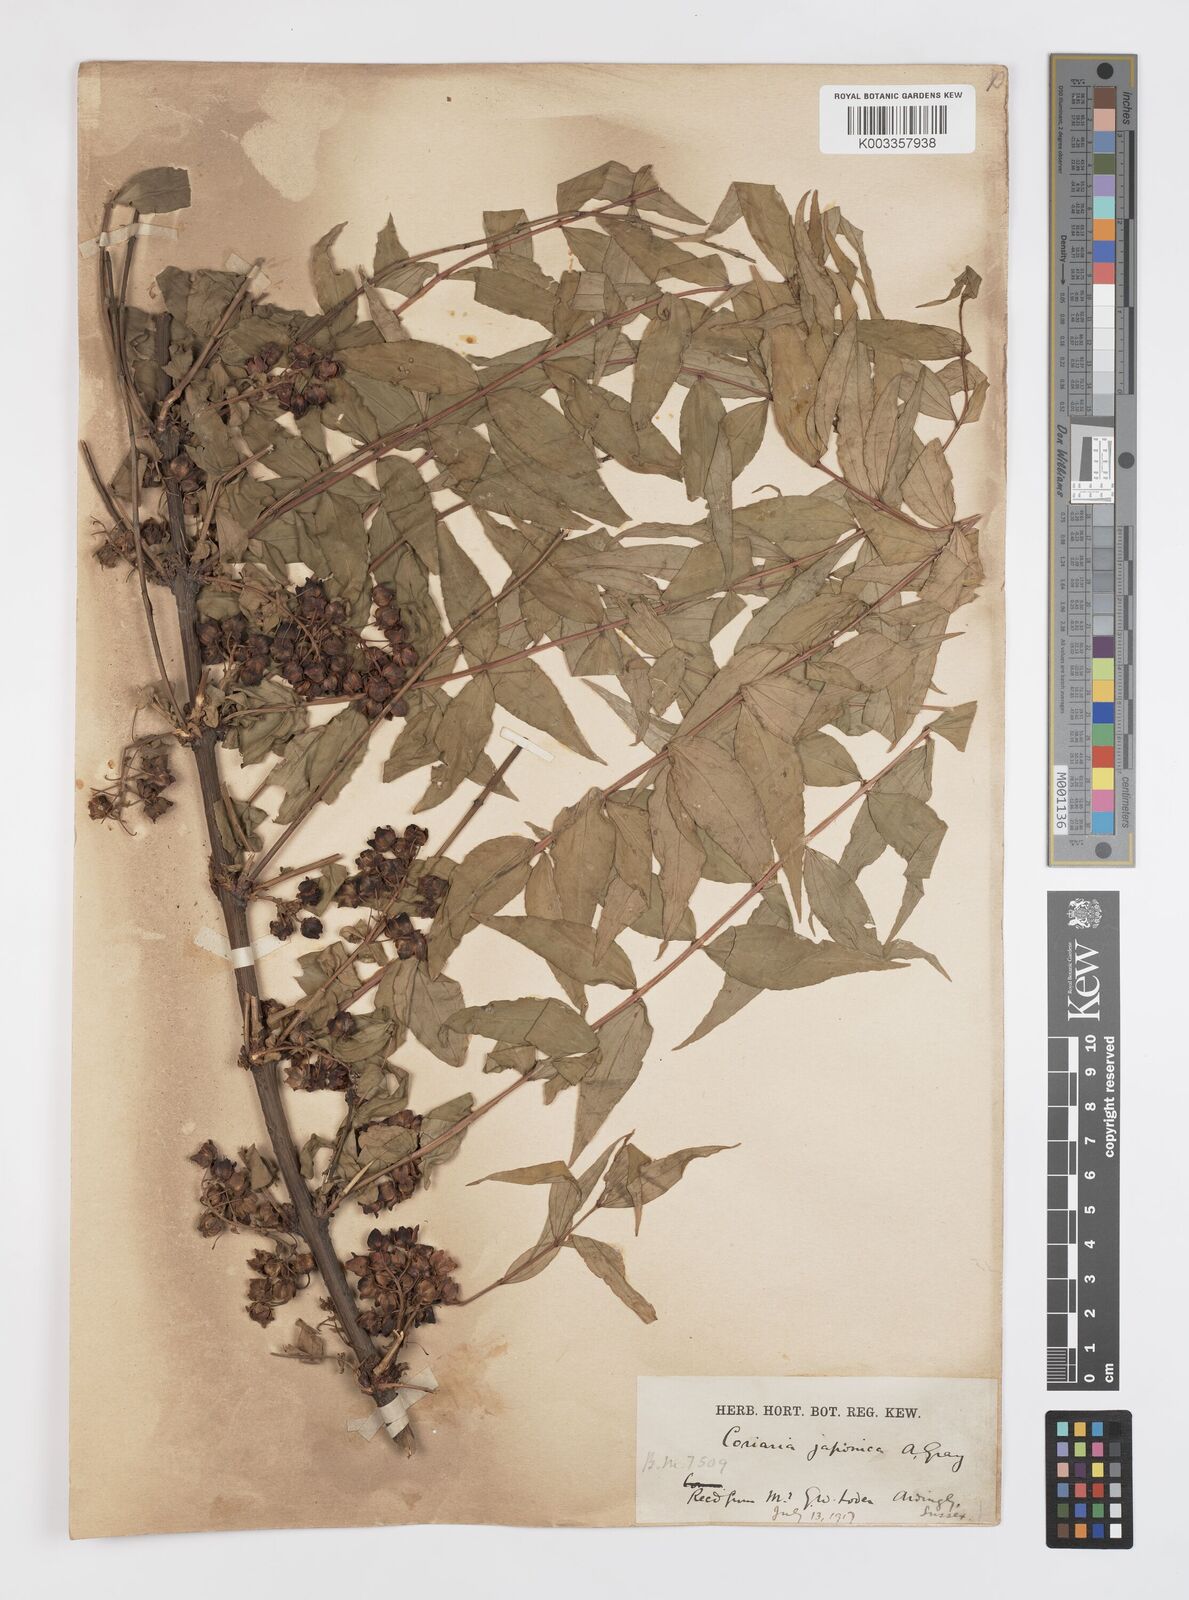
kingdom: Plantae
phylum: Tracheophyta
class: Magnoliopsida
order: Cucurbitales
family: Coriariaceae
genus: Coriaria
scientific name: Coriaria japonica
